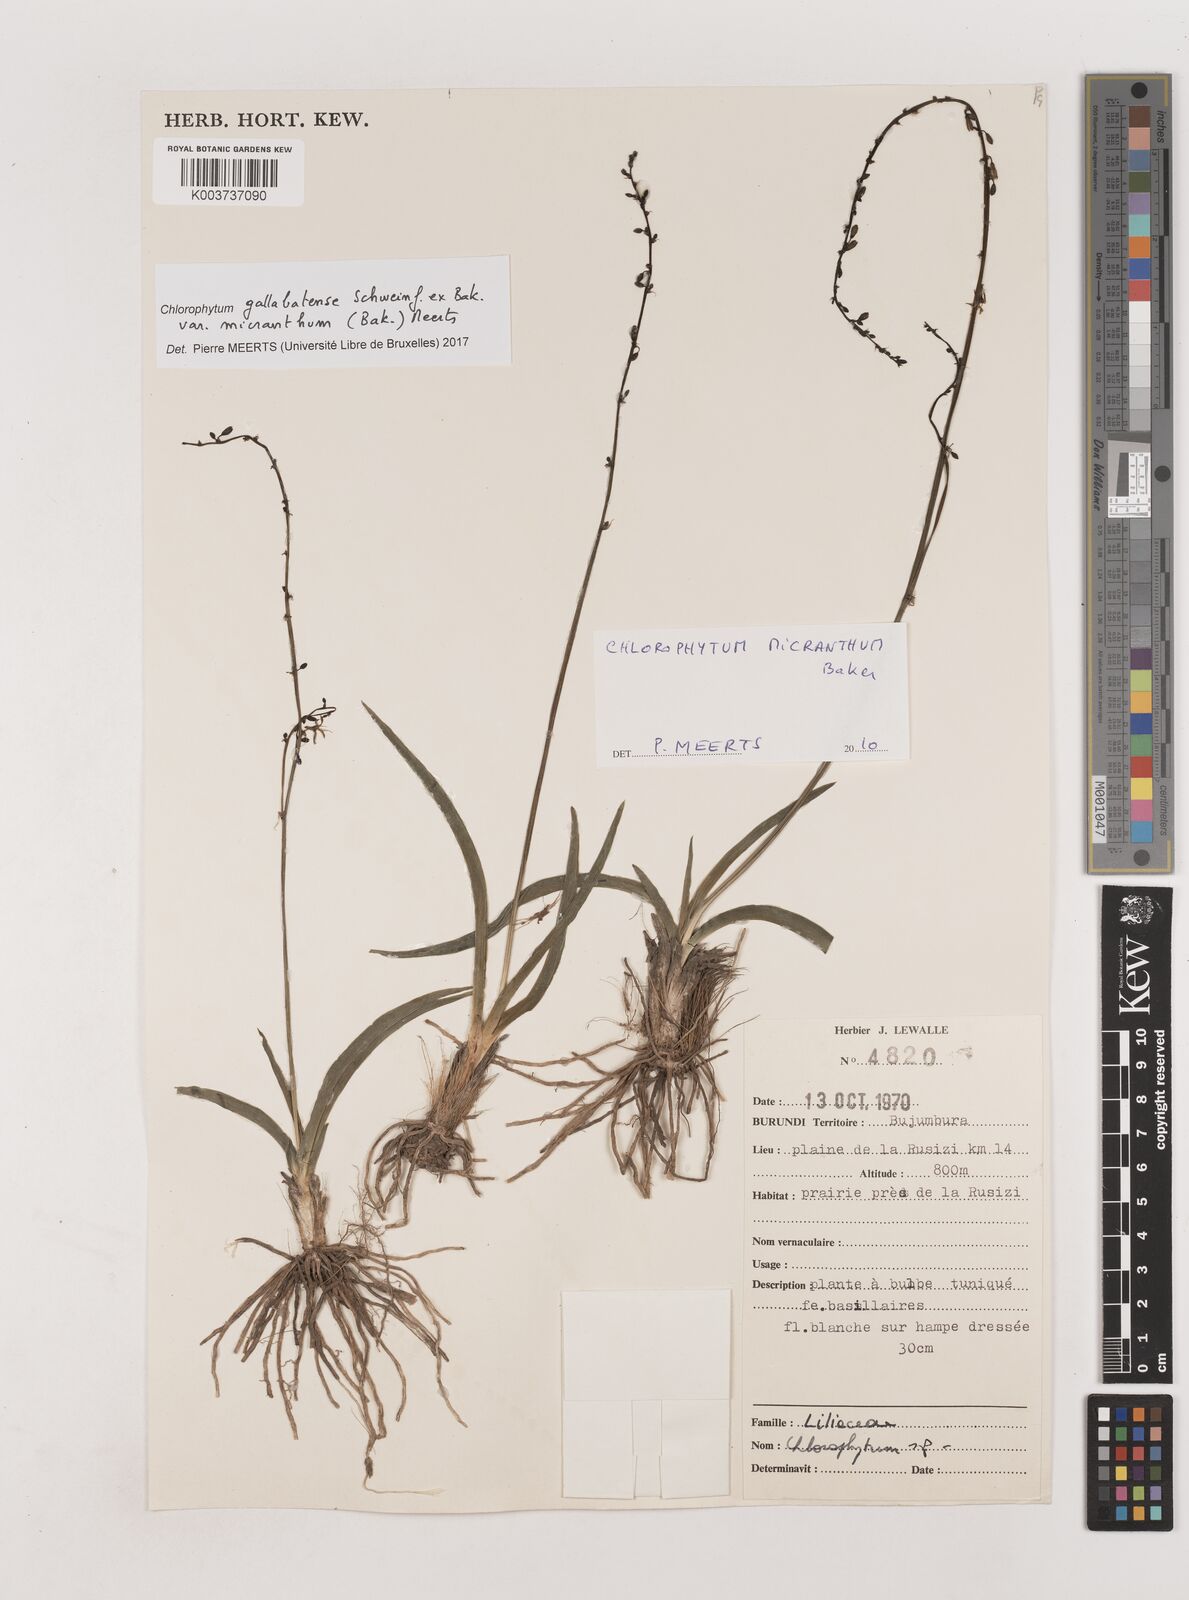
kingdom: Plantae
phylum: Tracheophyta
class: Liliopsida
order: Asparagales
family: Asparagaceae
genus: Chlorophytum
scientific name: Chlorophytum gallabatense
